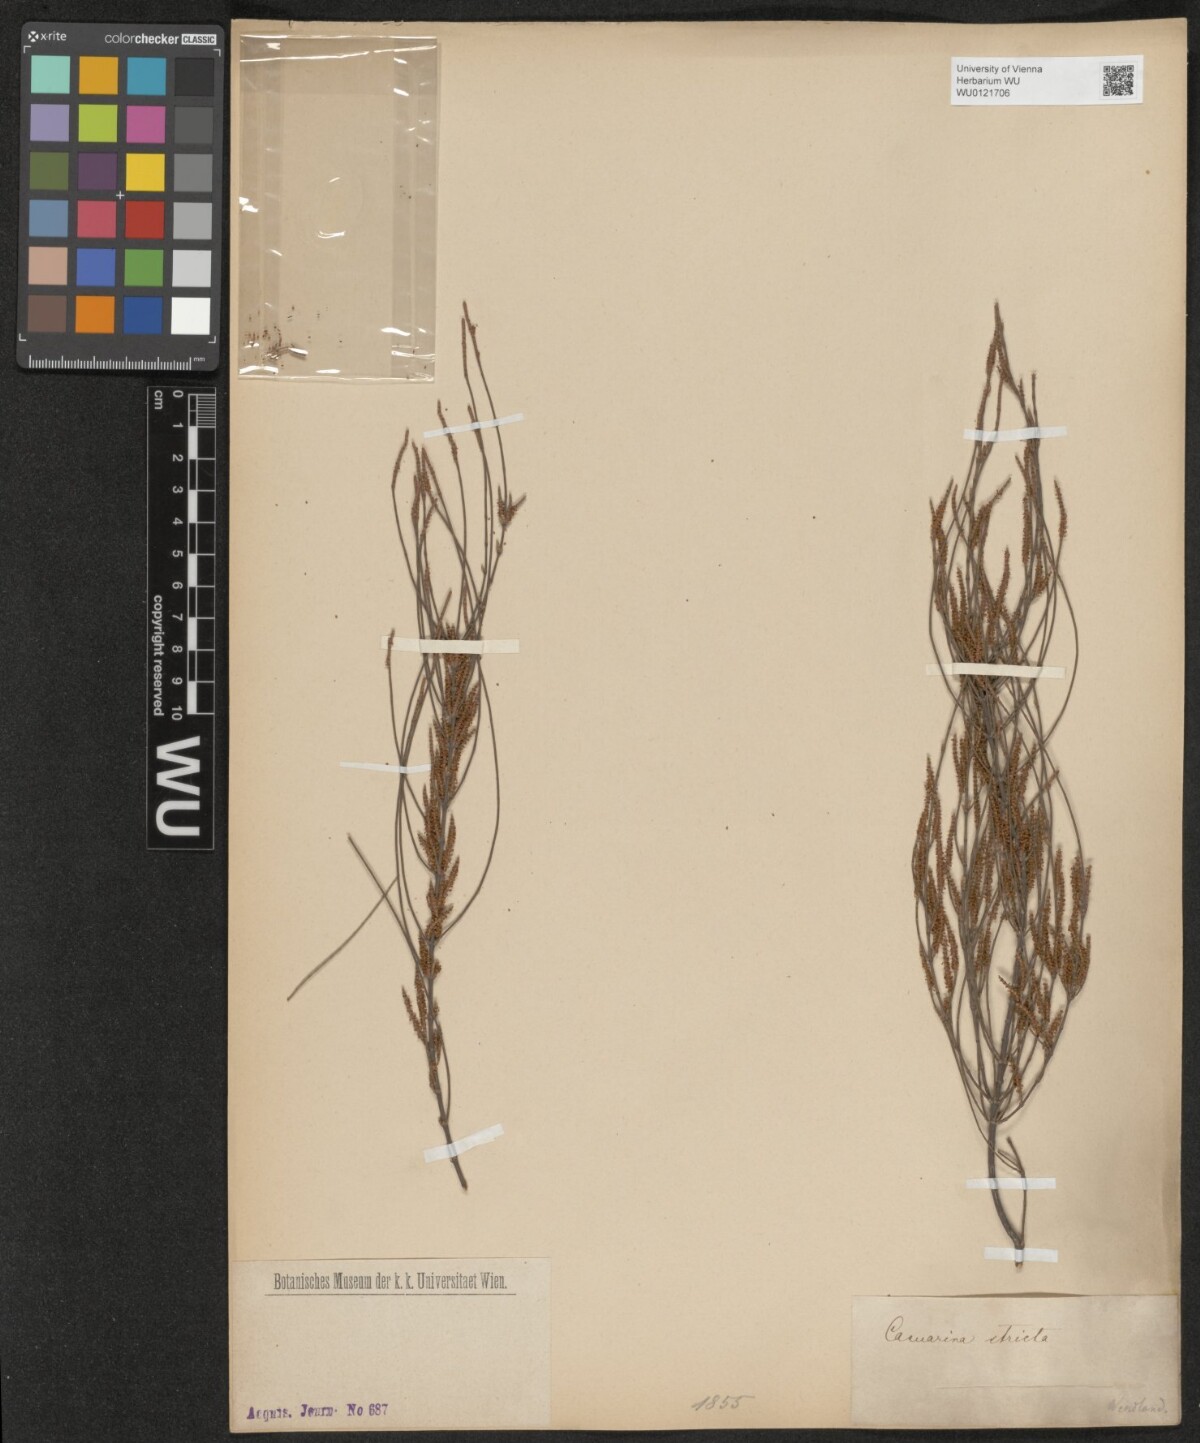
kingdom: Plantae
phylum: Tracheophyta
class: Magnoliopsida
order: Fagales
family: Casuarinaceae
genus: Casuarina
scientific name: Casuarina stricta
